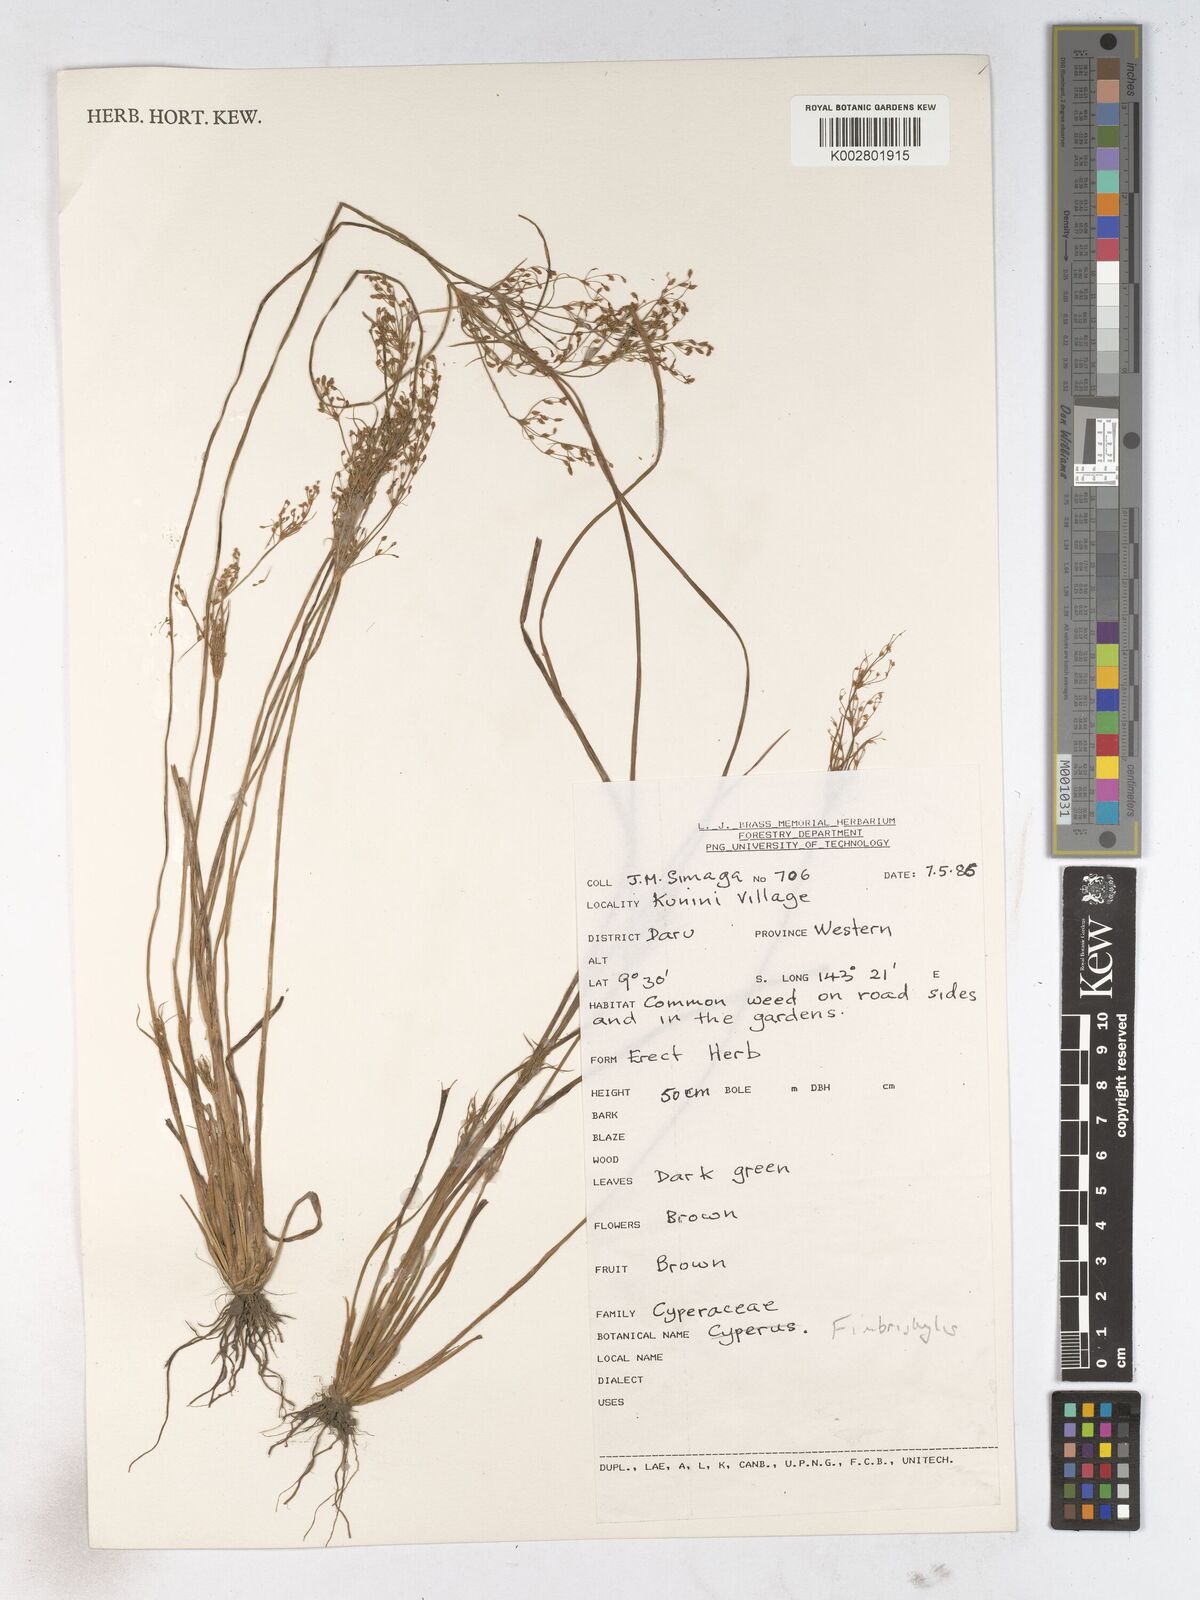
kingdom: Plantae
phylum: Tracheophyta
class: Liliopsida
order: Poales
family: Cyperaceae
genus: Fimbristylis
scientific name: Fimbristylis dictyocolea
